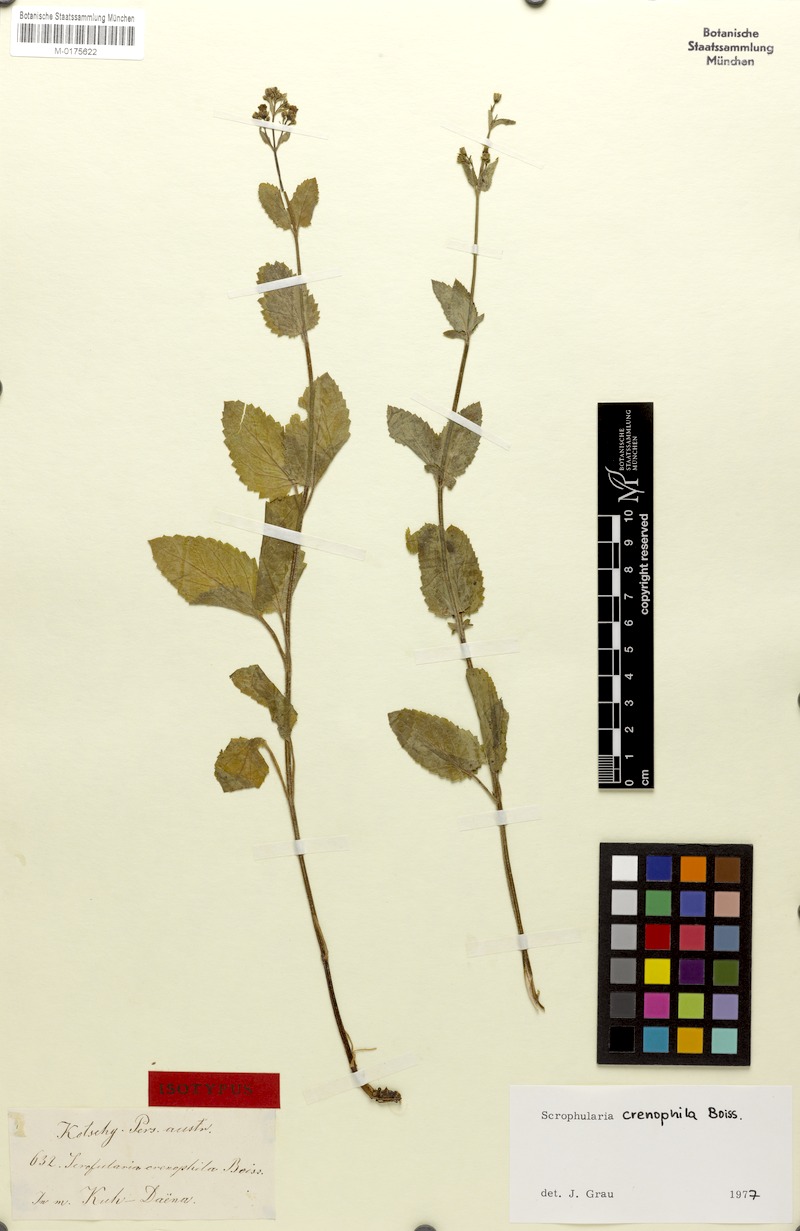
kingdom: Plantae
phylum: Tracheophyta
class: Magnoliopsida
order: Lamiales
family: Scrophulariaceae
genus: Scrophularia
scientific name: Scrophularia crenophila
